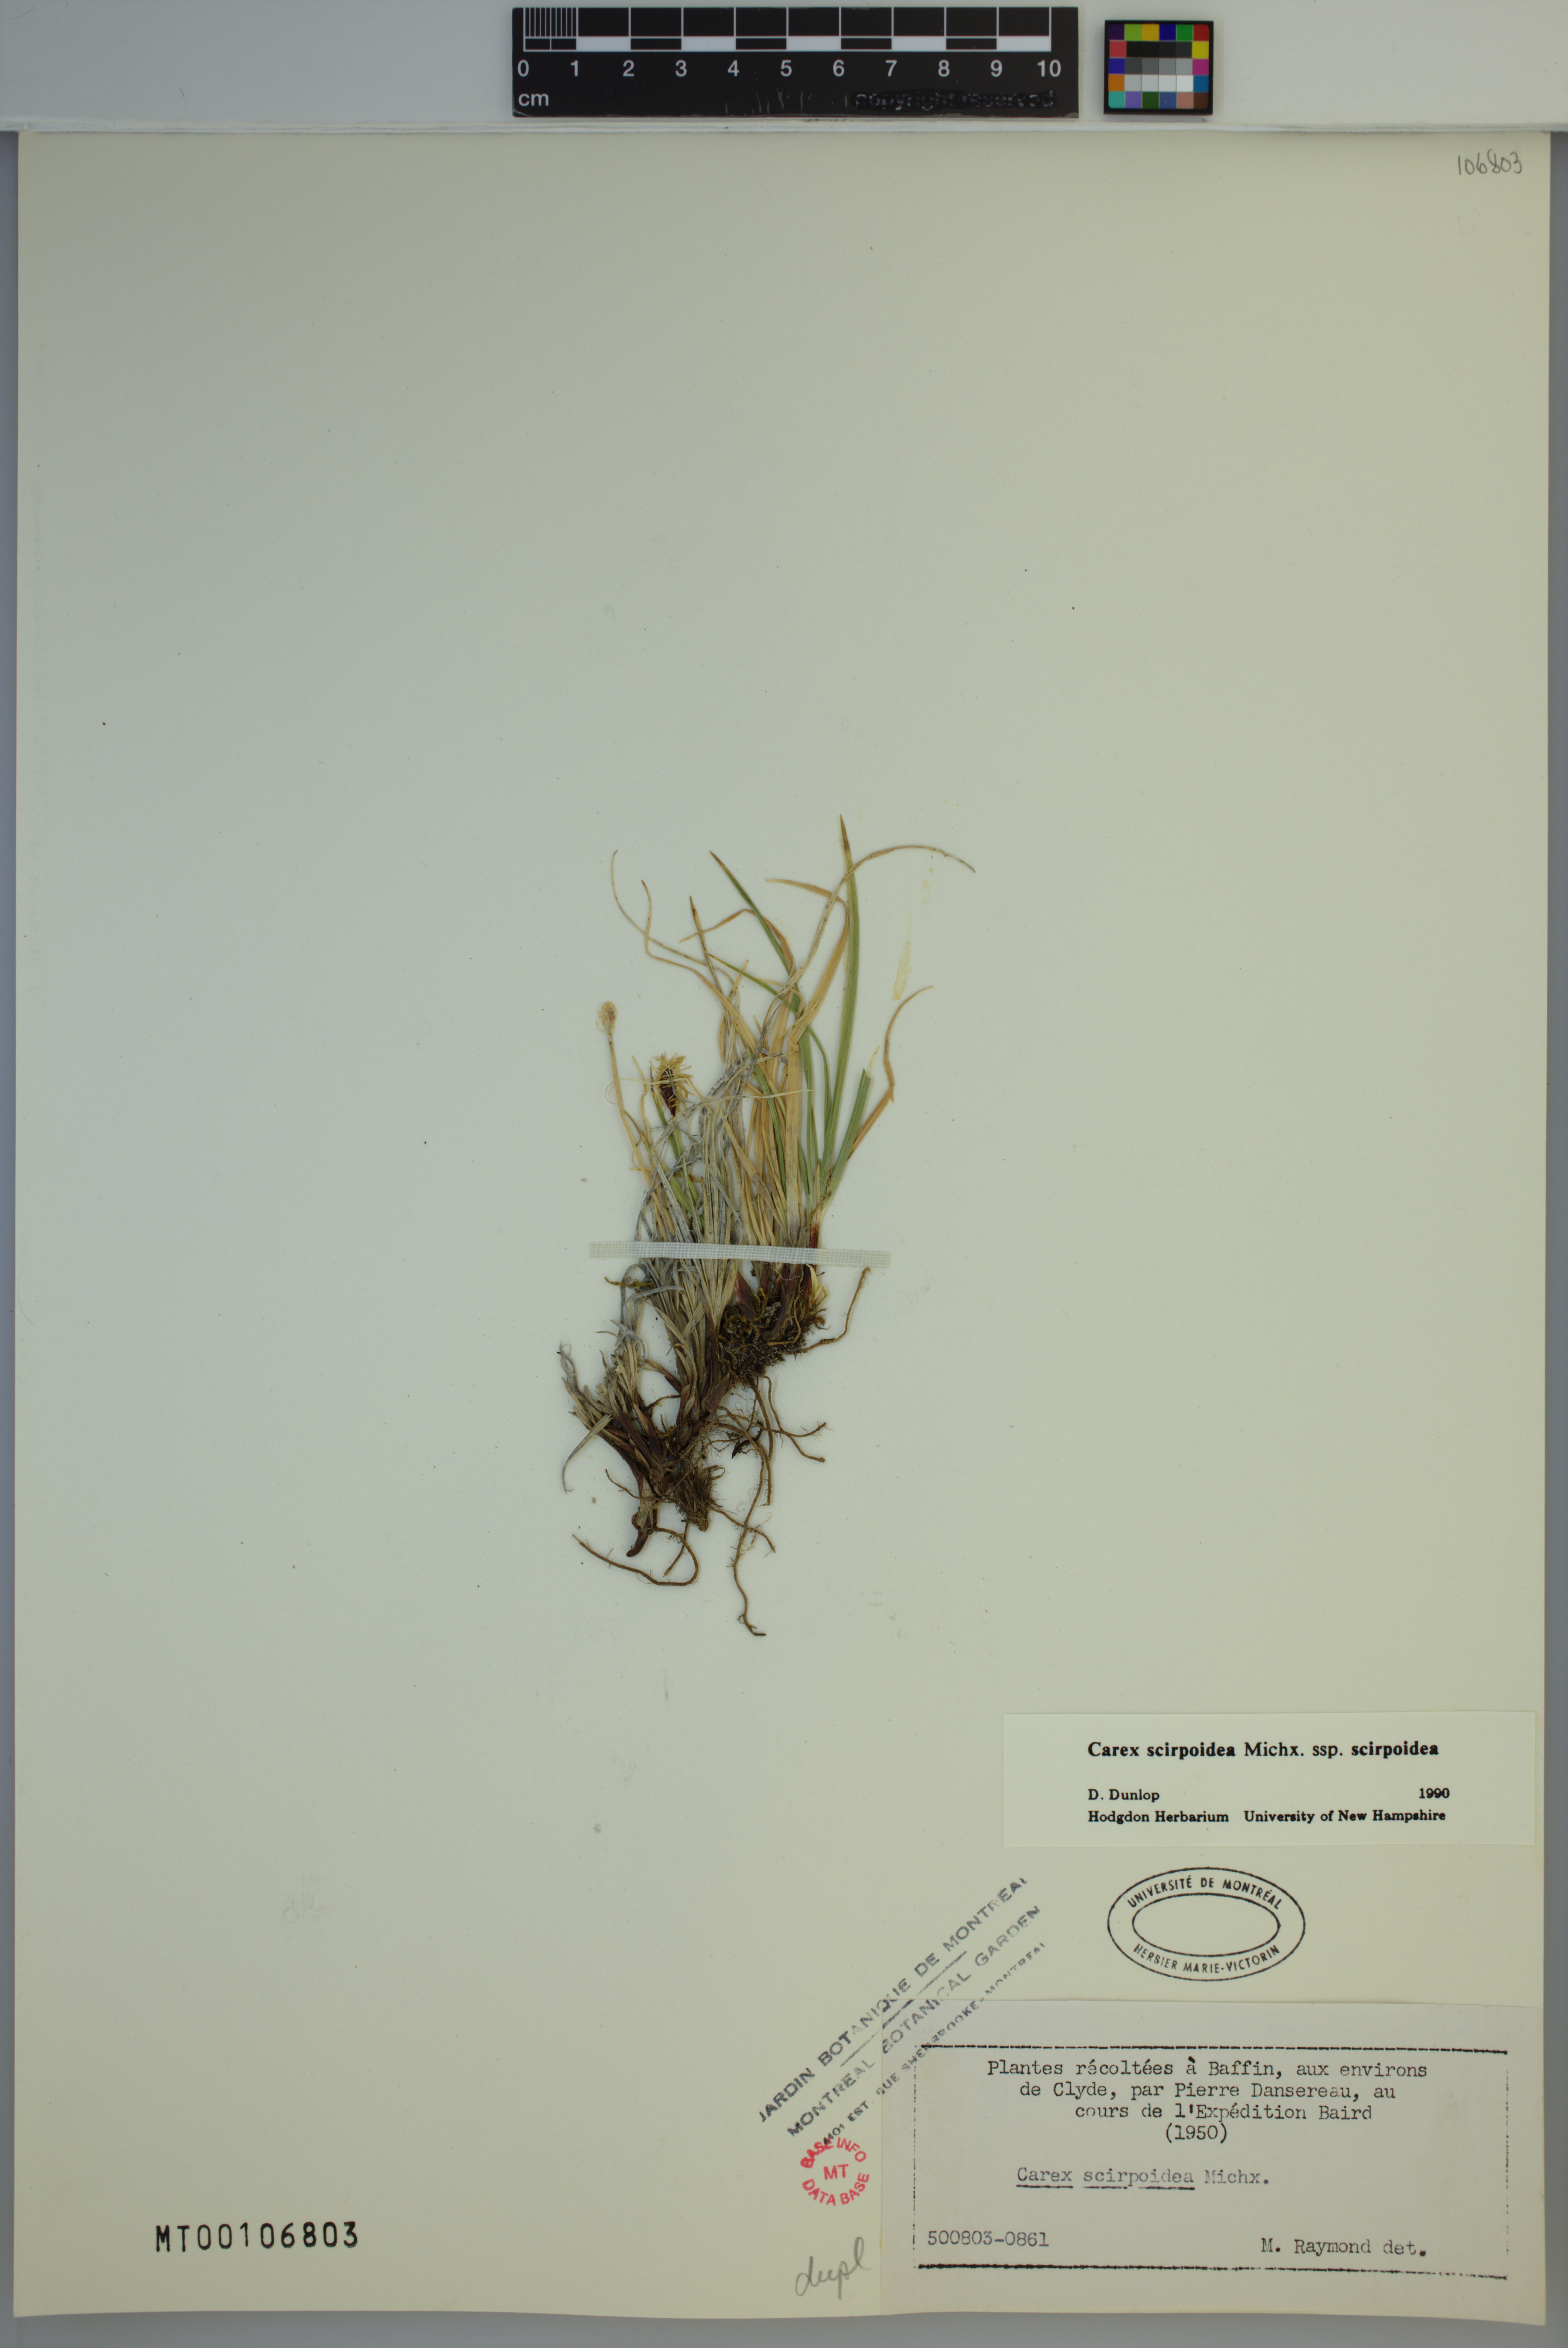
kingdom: Plantae
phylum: Tracheophyta
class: Liliopsida
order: Poales
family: Cyperaceae
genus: Carex
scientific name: Carex scirpoidea
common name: Canada single-spike sedge
